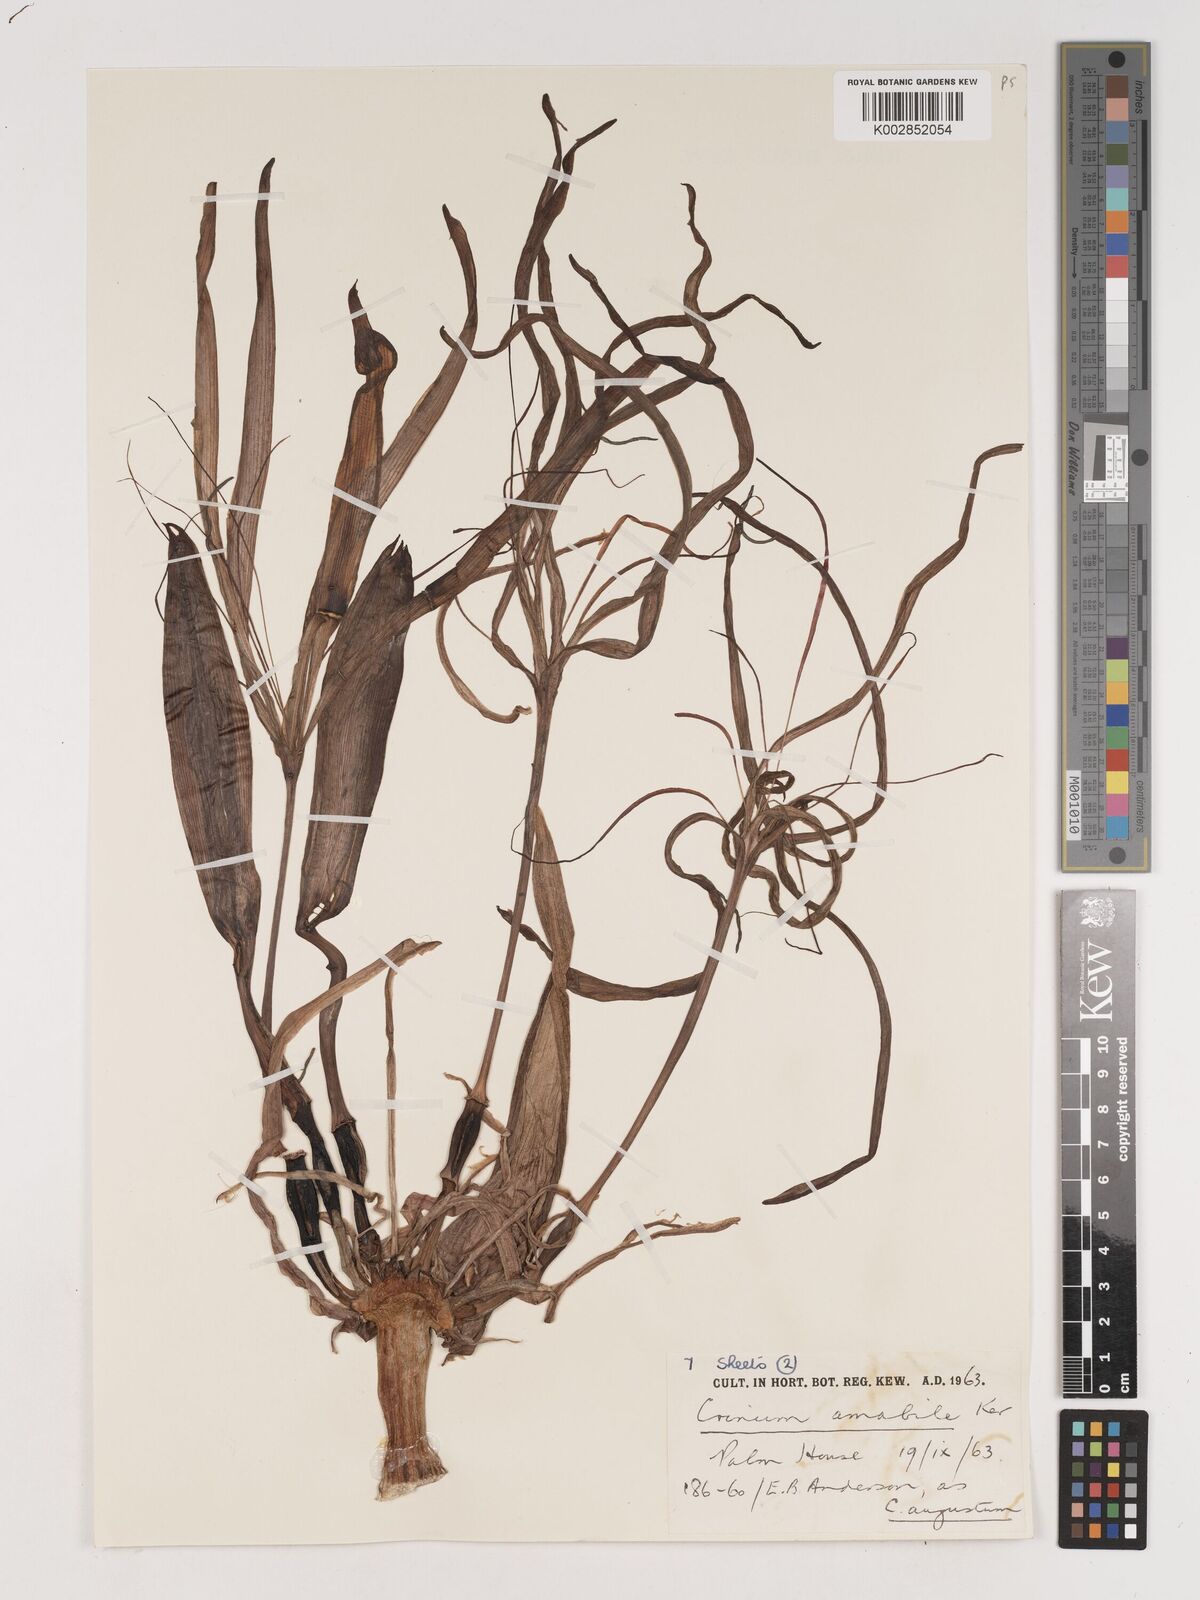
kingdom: Plantae
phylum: Tracheophyta
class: Liliopsida
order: Asparagales
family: Amaryllidaceae
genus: Crinum
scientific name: Crinum amabile
